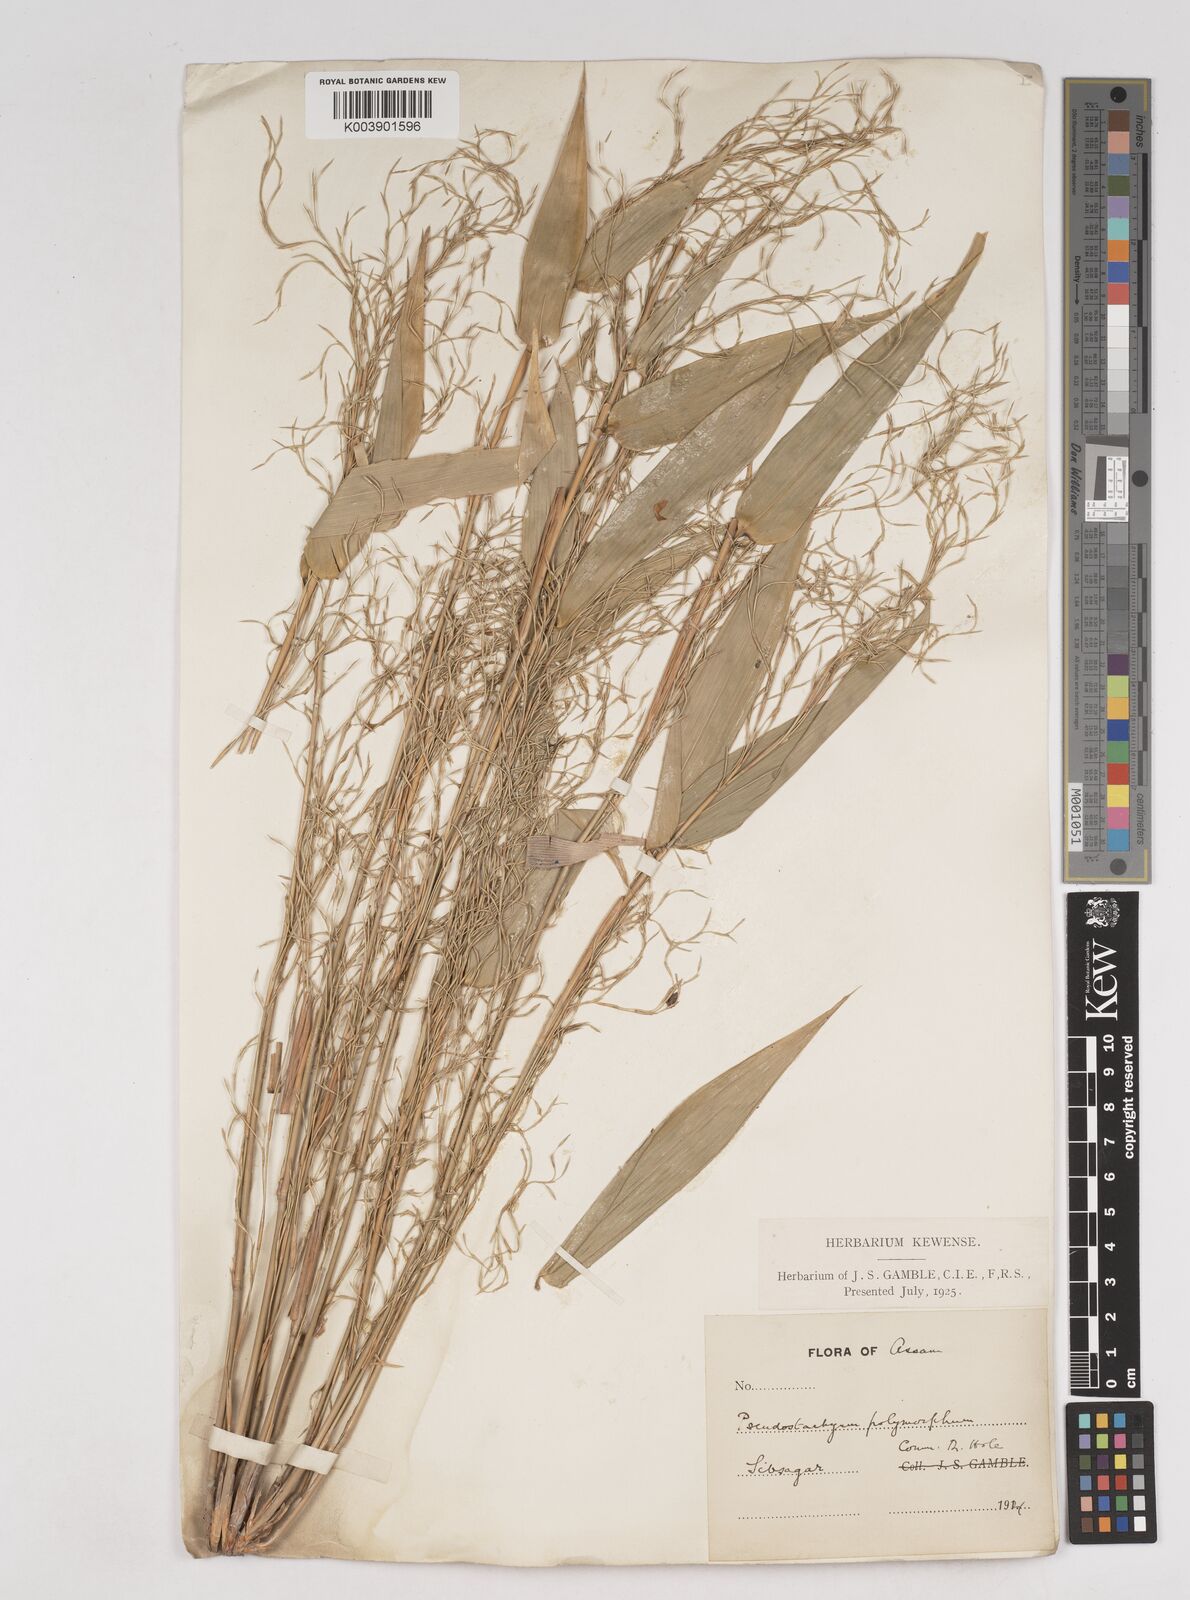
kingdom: Plantae
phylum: Tracheophyta
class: Liliopsida
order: Poales
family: Poaceae
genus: Pseudostachyum
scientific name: Pseudostachyum polymorphum
